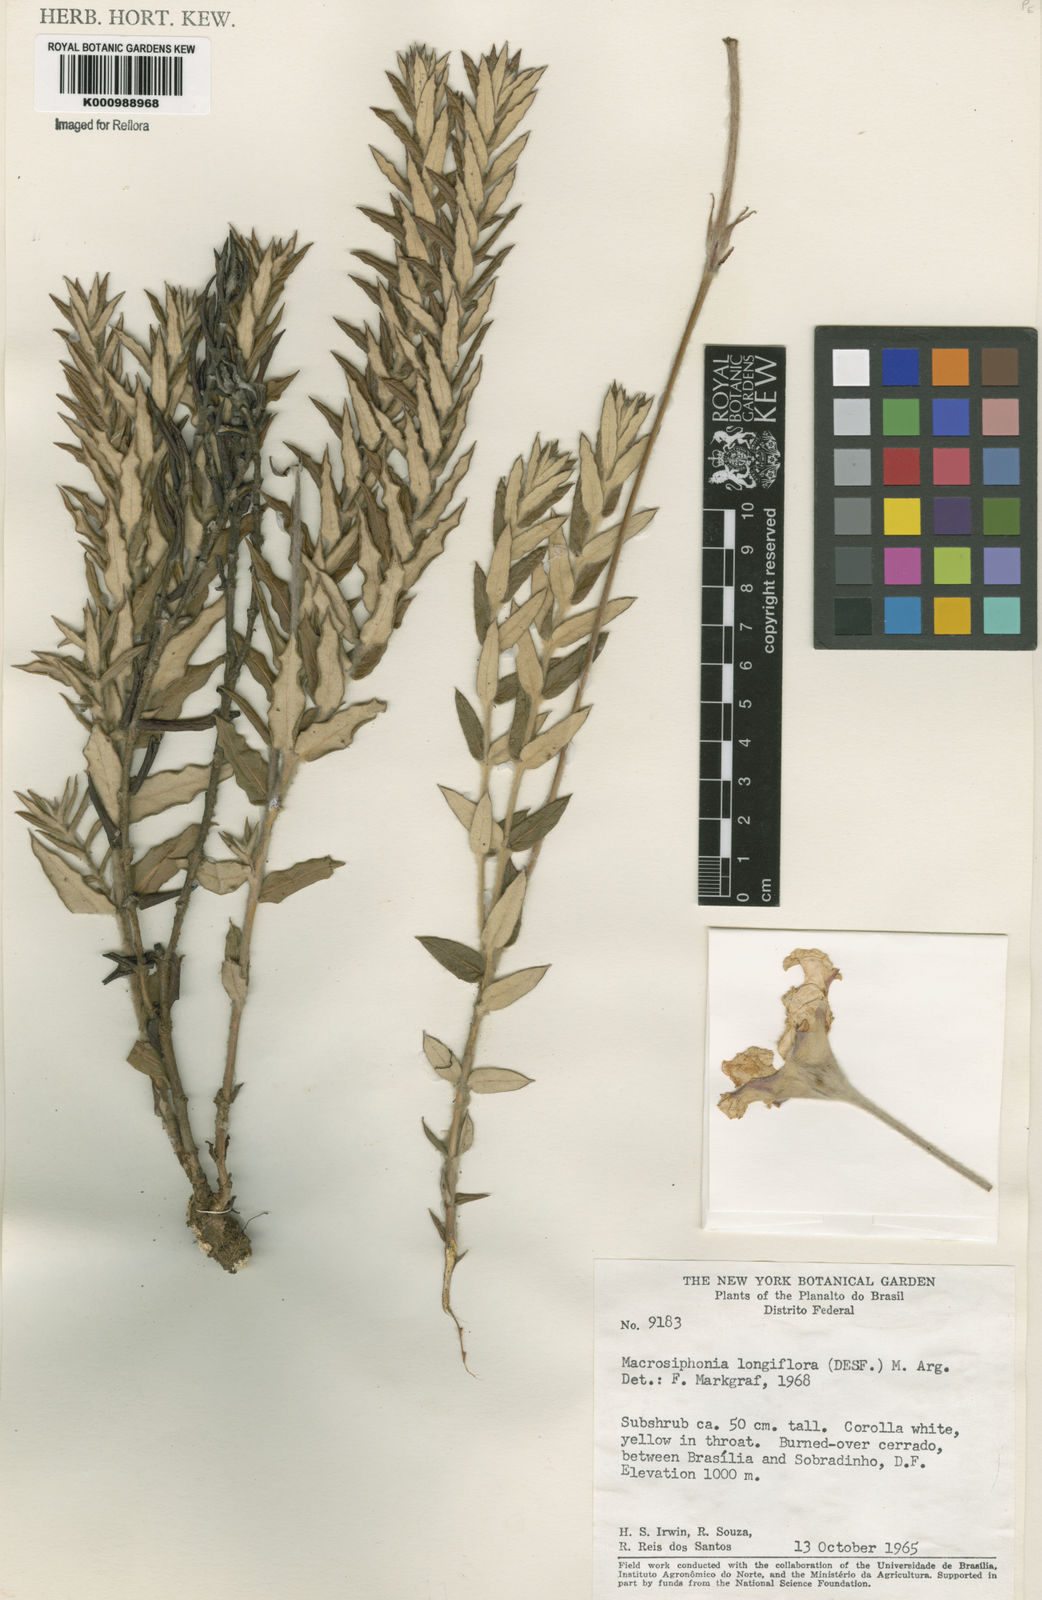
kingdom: Plantae
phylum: Tracheophyta
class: Magnoliopsida
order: Gentianales
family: Apocynaceae
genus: Mandevilla
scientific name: Mandevilla longiflora
